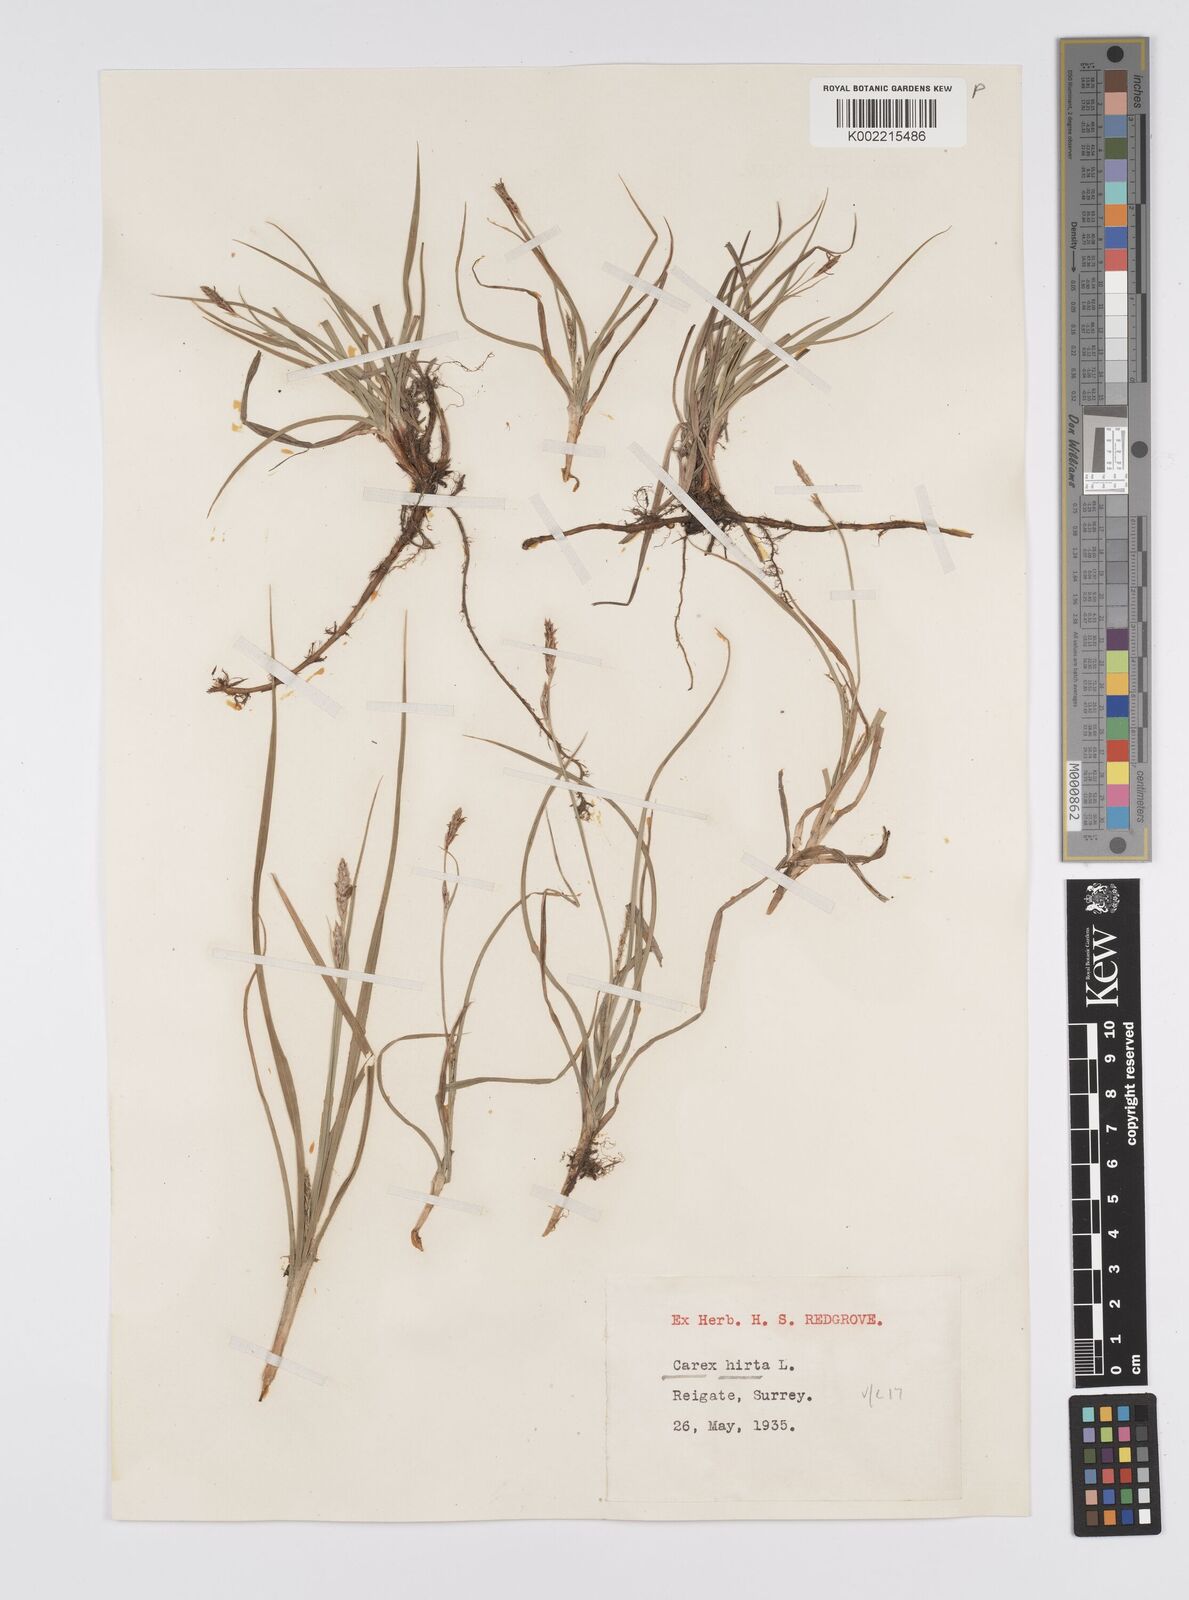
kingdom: Plantae
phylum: Tracheophyta
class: Liliopsida
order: Poales
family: Cyperaceae
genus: Carex
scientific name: Carex hirta
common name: Hairy sedge
